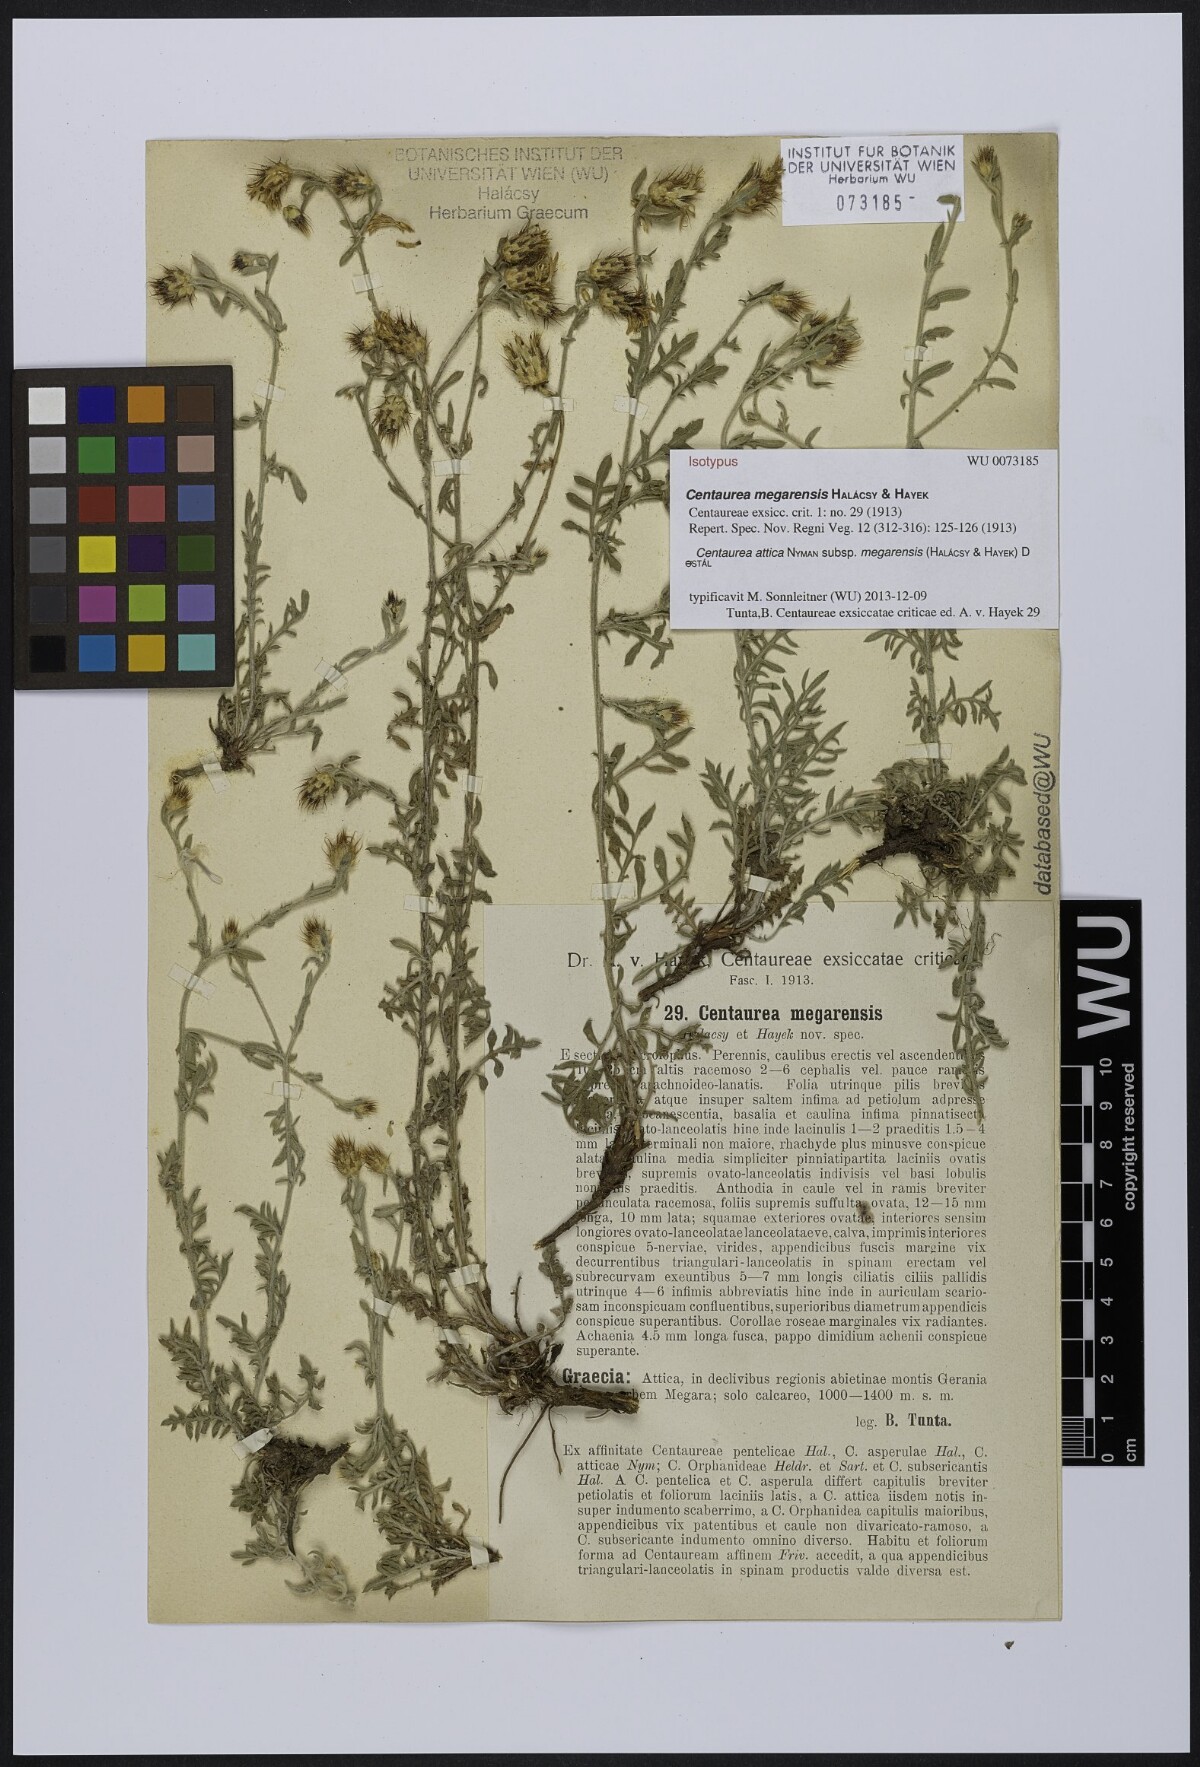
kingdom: Plantae
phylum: Tracheophyta
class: Magnoliopsida
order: Asterales
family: Asteraceae
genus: Centaurea
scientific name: Centaurea attica
